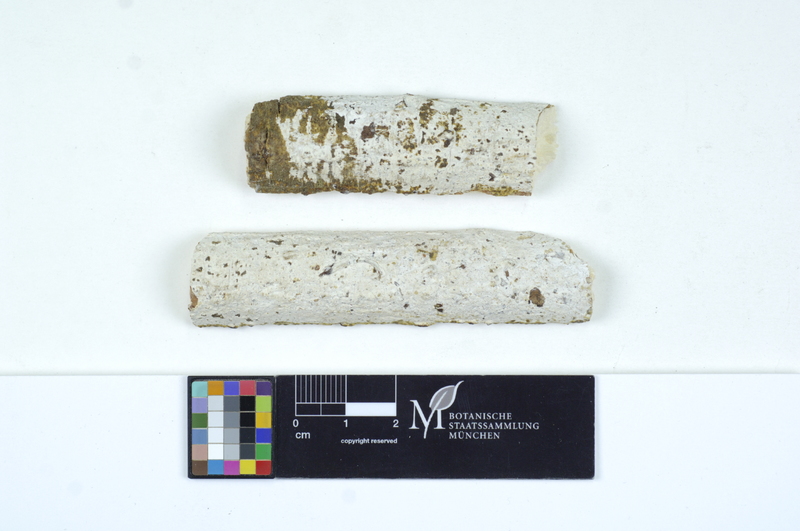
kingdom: Fungi
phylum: Basidiomycota
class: Agaricomycetes
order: Auriculariales
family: Auriculariaceae
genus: Alloexidiopsis
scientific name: Alloexidiopsis calcea
